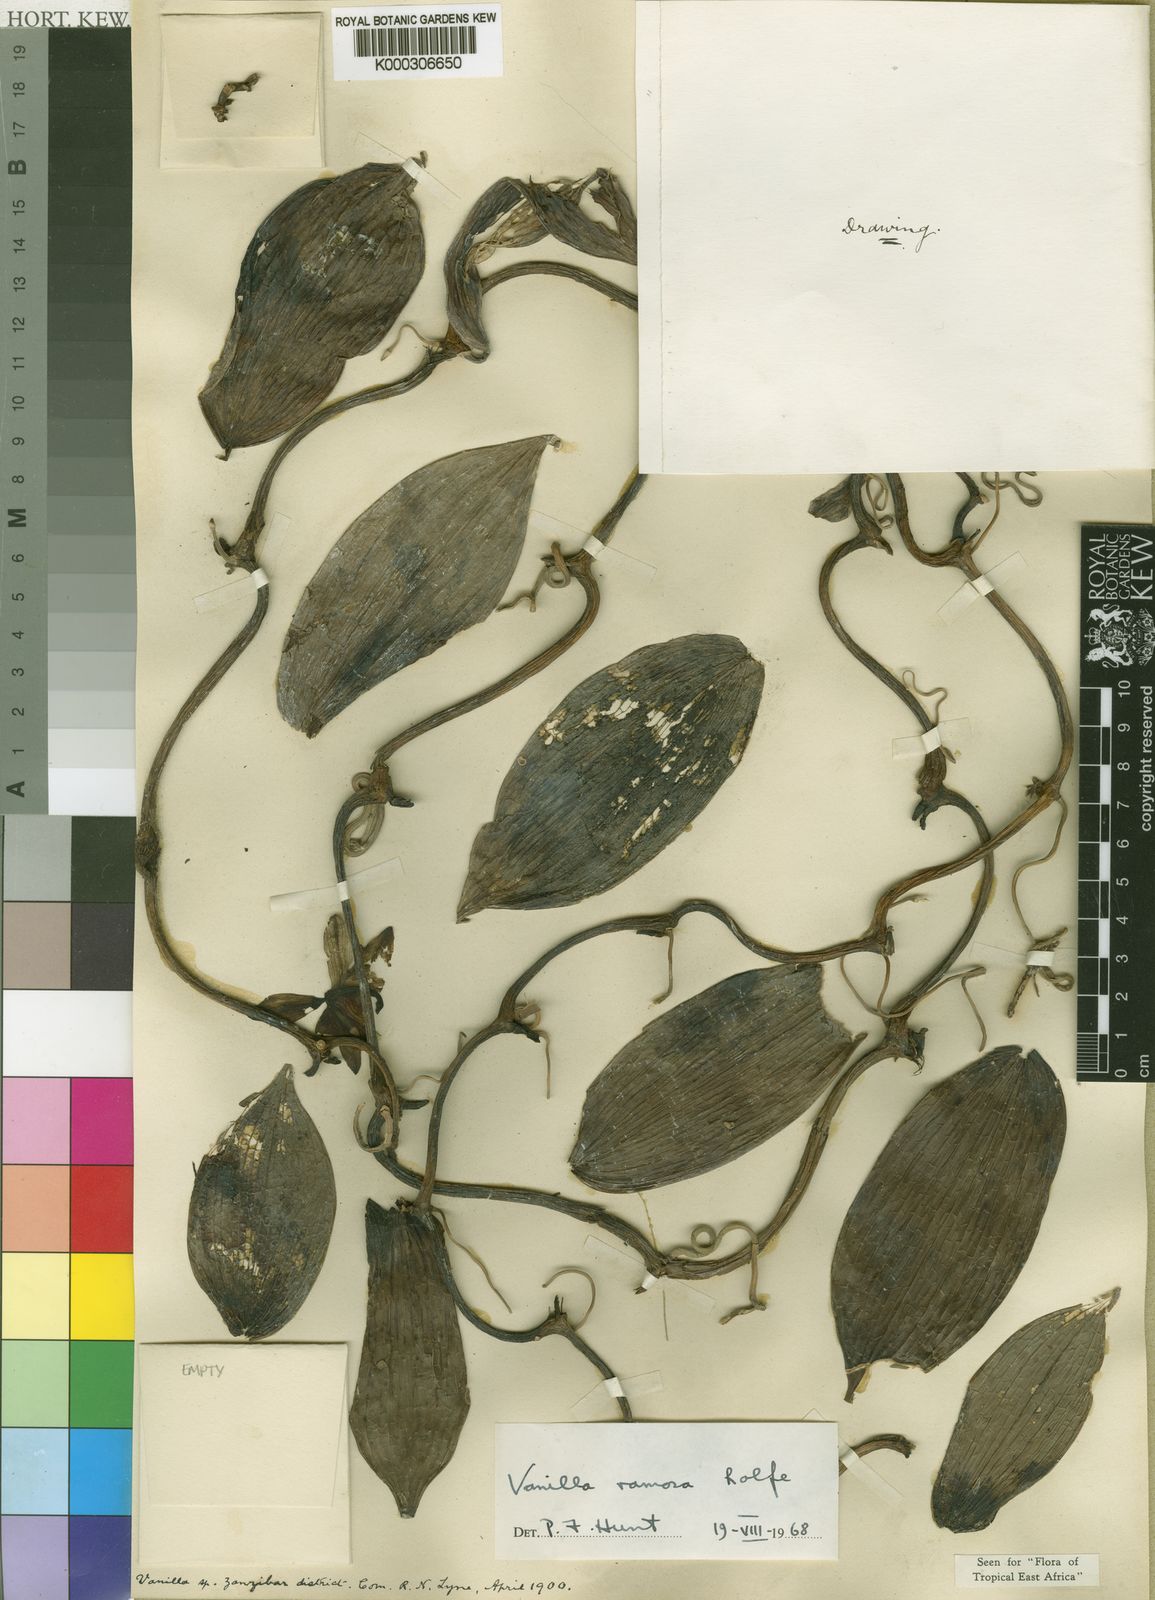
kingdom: Plantae
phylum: Tracheophyta
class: Liliopsida
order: Asparagales
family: Orchidaceae
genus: Vanilla
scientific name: Vanilla ramosa
